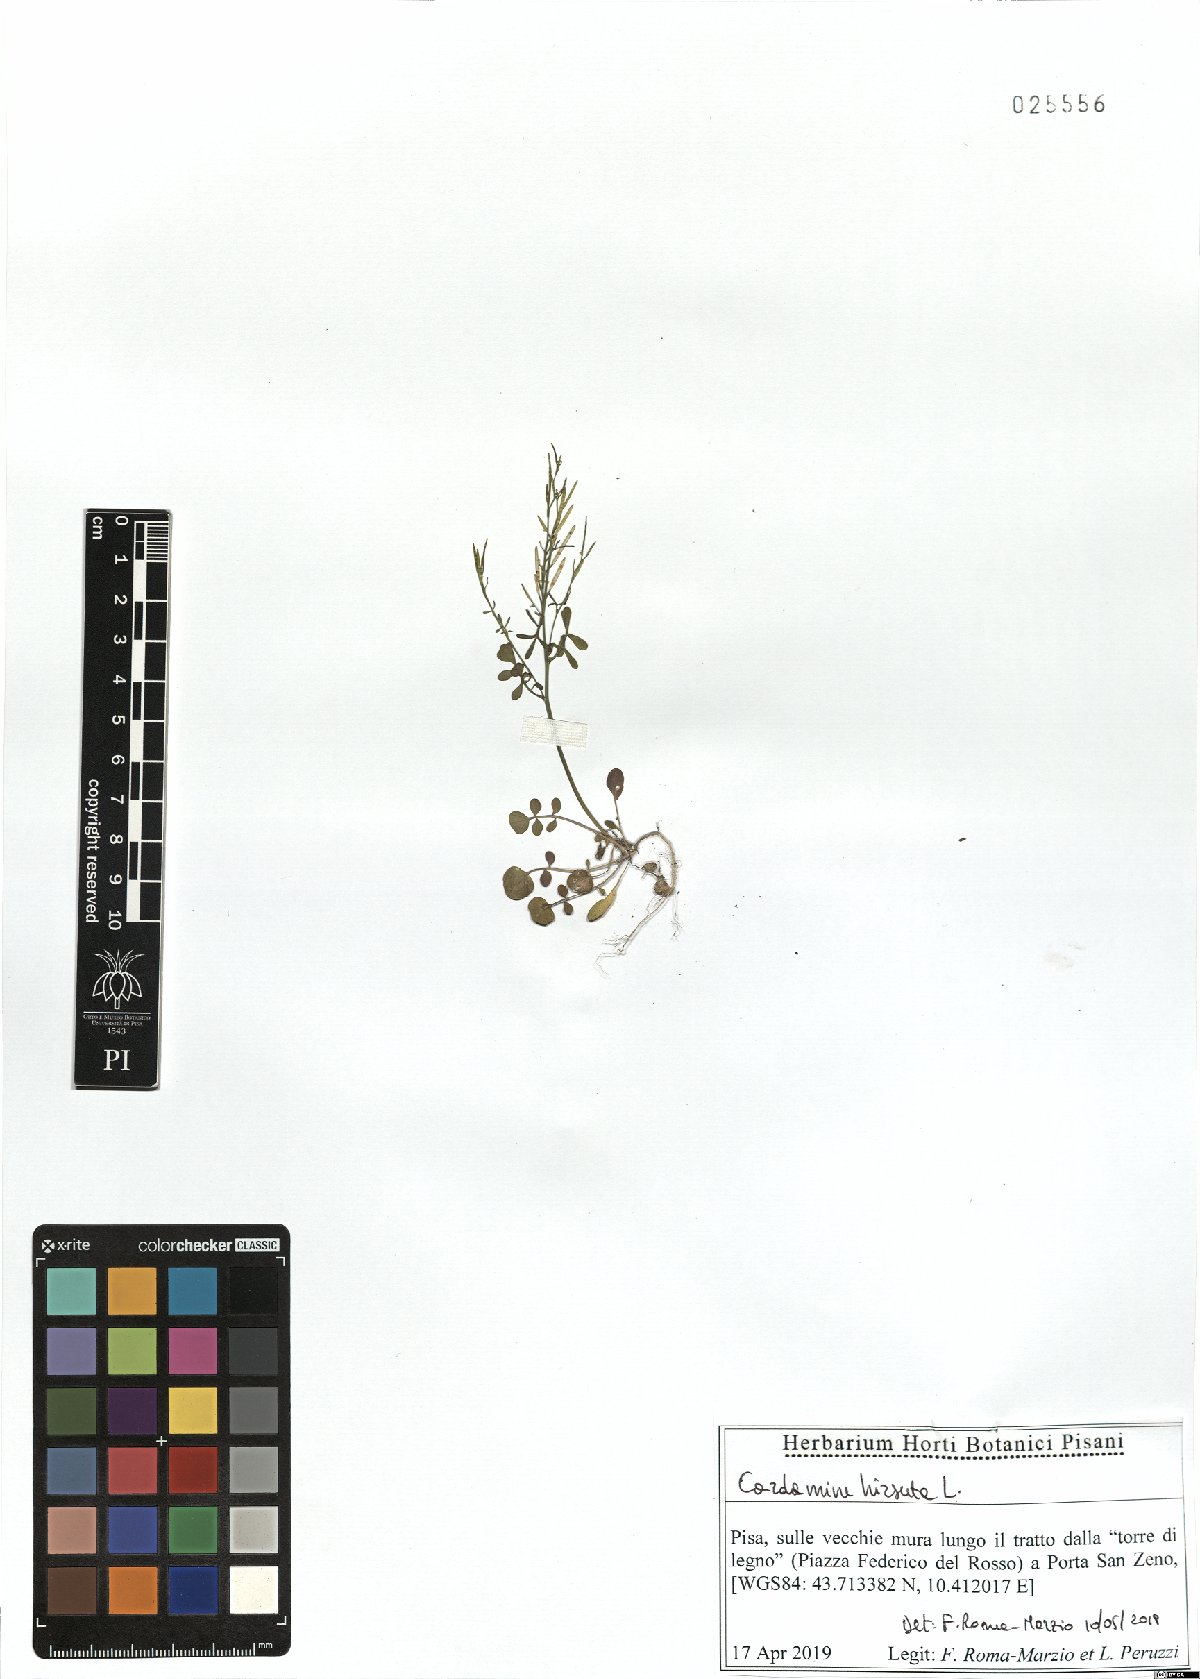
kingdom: Plantae
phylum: Tracheophyta
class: Magnoliopsida
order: Brassicales
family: Brassicaceae
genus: Cardamine
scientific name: Cardamine hirsuta
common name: Hairy bittercress
